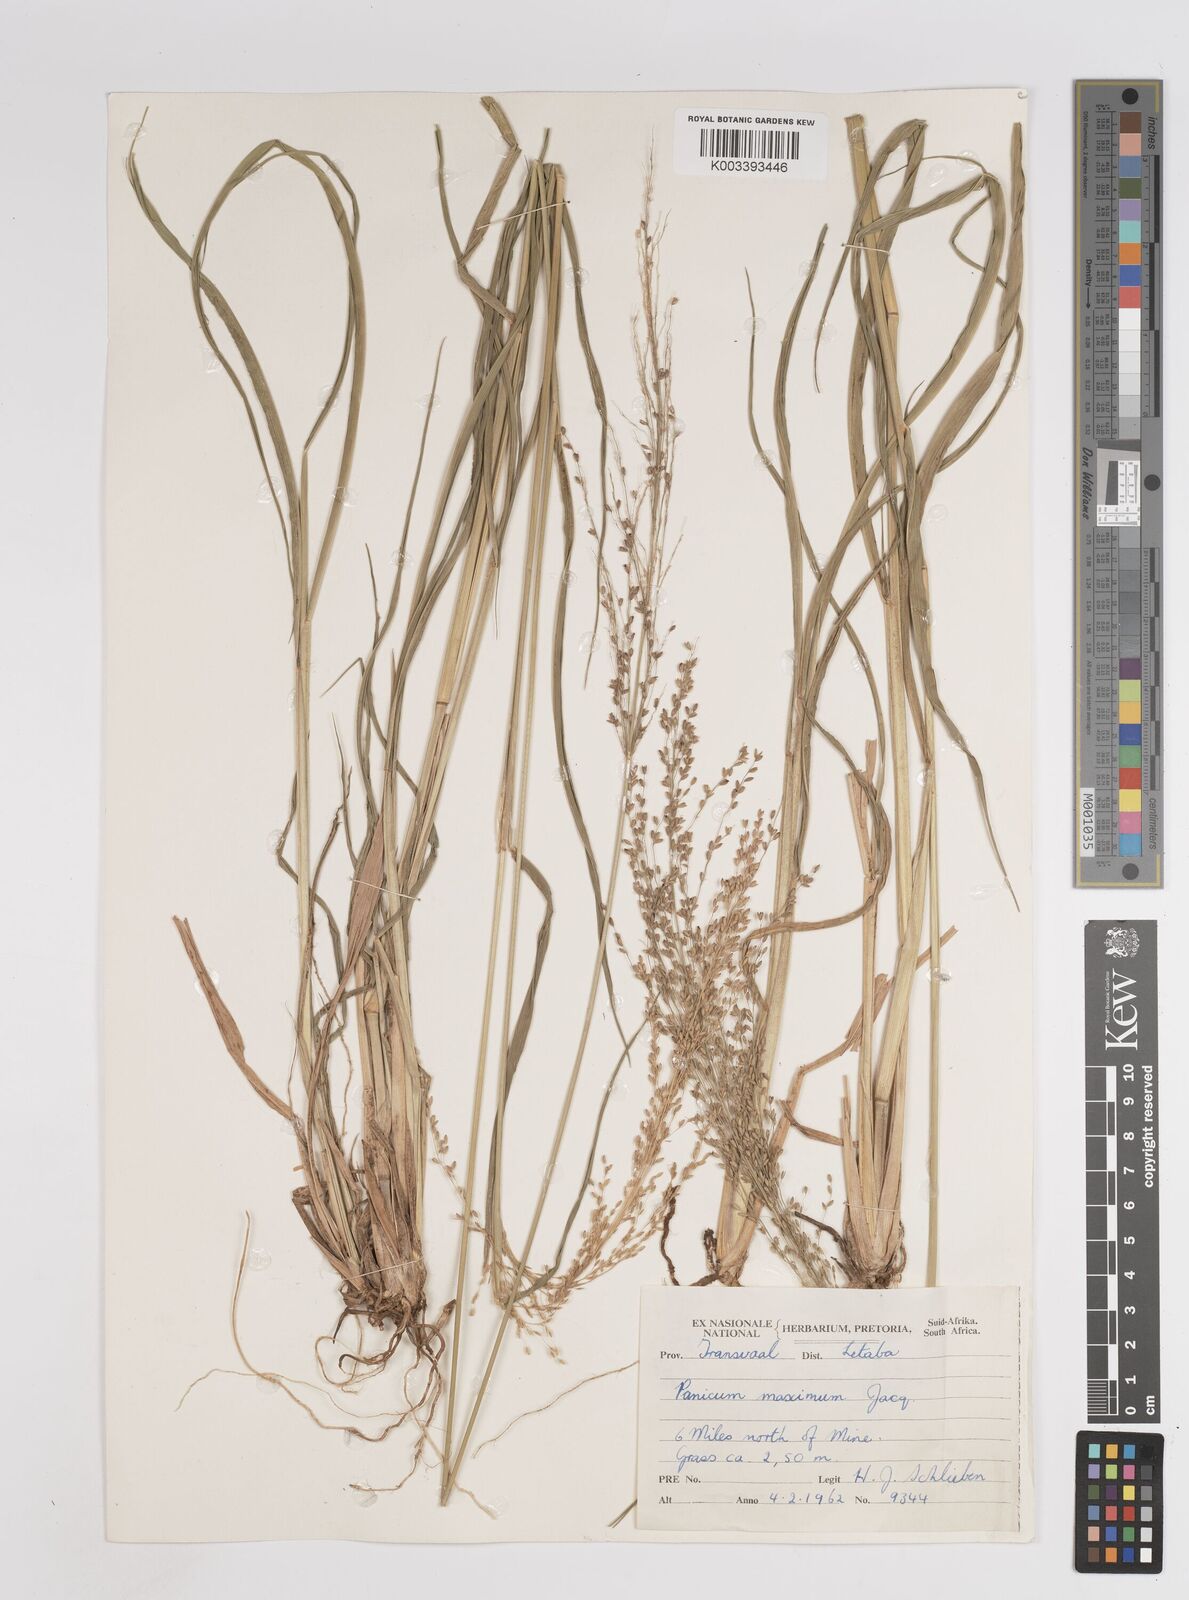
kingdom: Plantae
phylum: Tracheophyta
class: Liliopsida
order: Poales
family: Poaceae
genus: Megathyrsus
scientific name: Megathyrsus maximus
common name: Guineagrass
